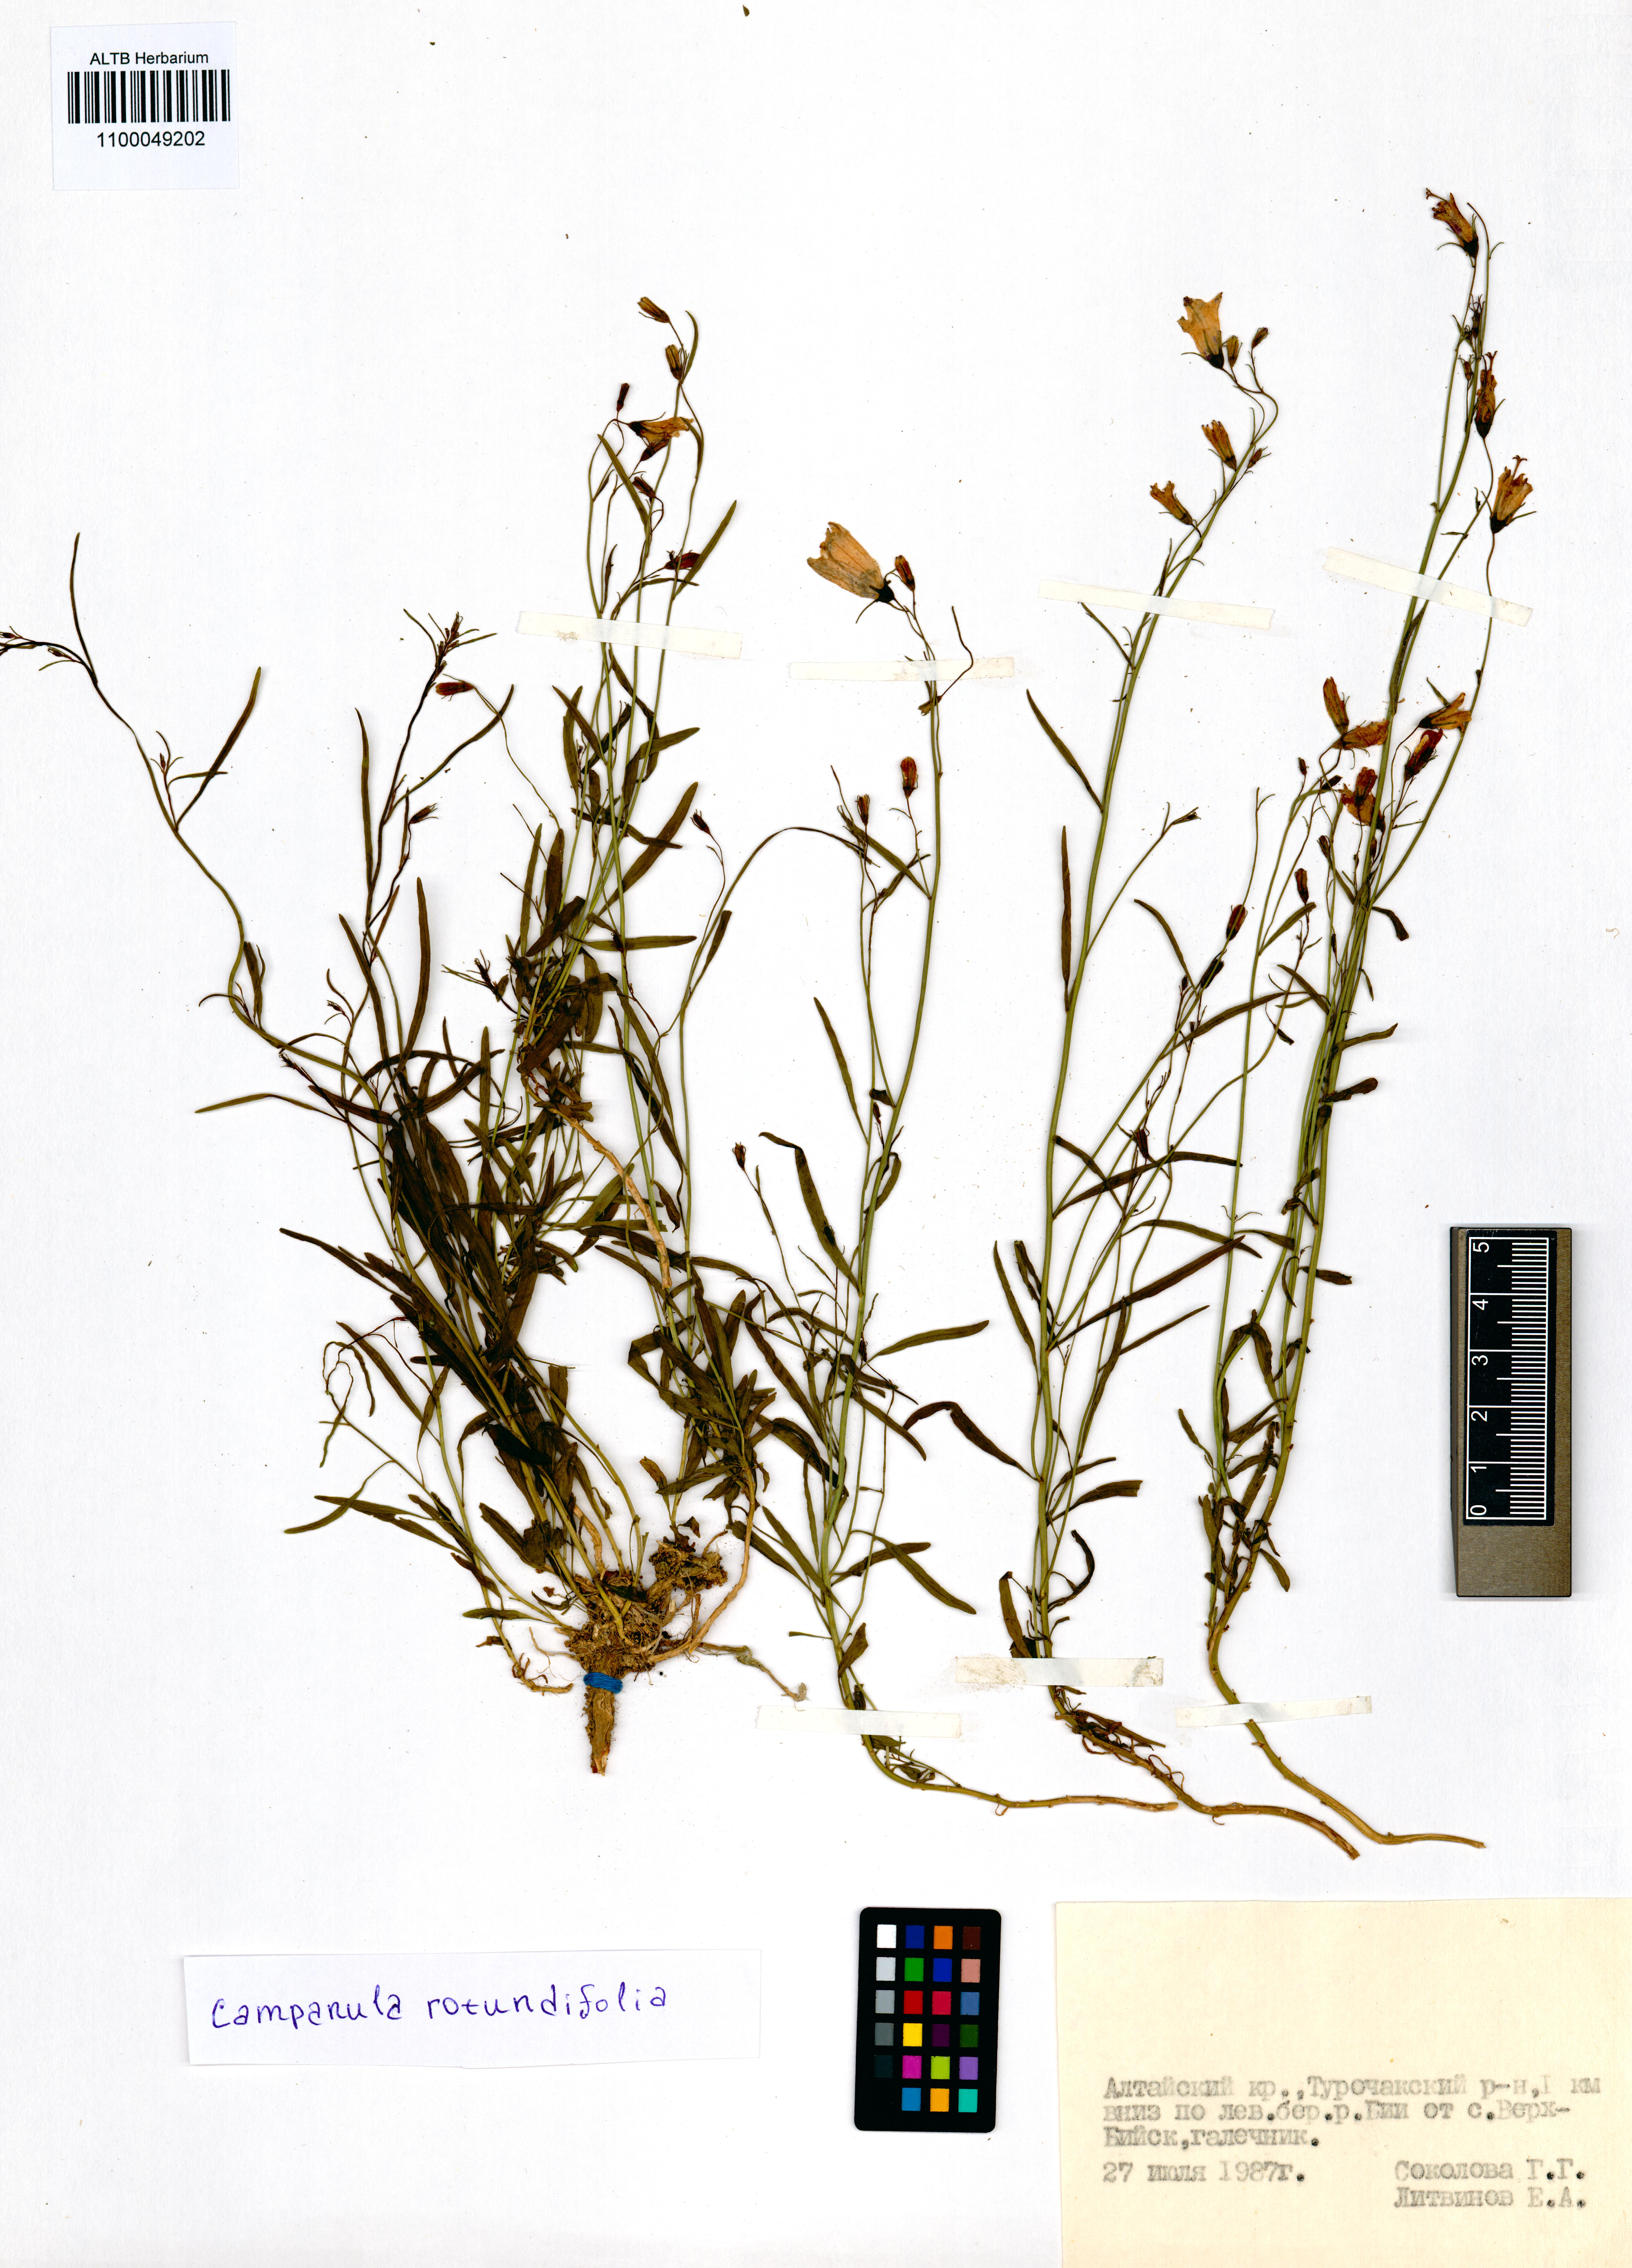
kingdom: Plantae
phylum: Tracheophyta
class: Magnoliopsida
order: Asterales
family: Campanulaceae
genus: Campanula
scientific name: Campanula rotundifolia
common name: Harebell
